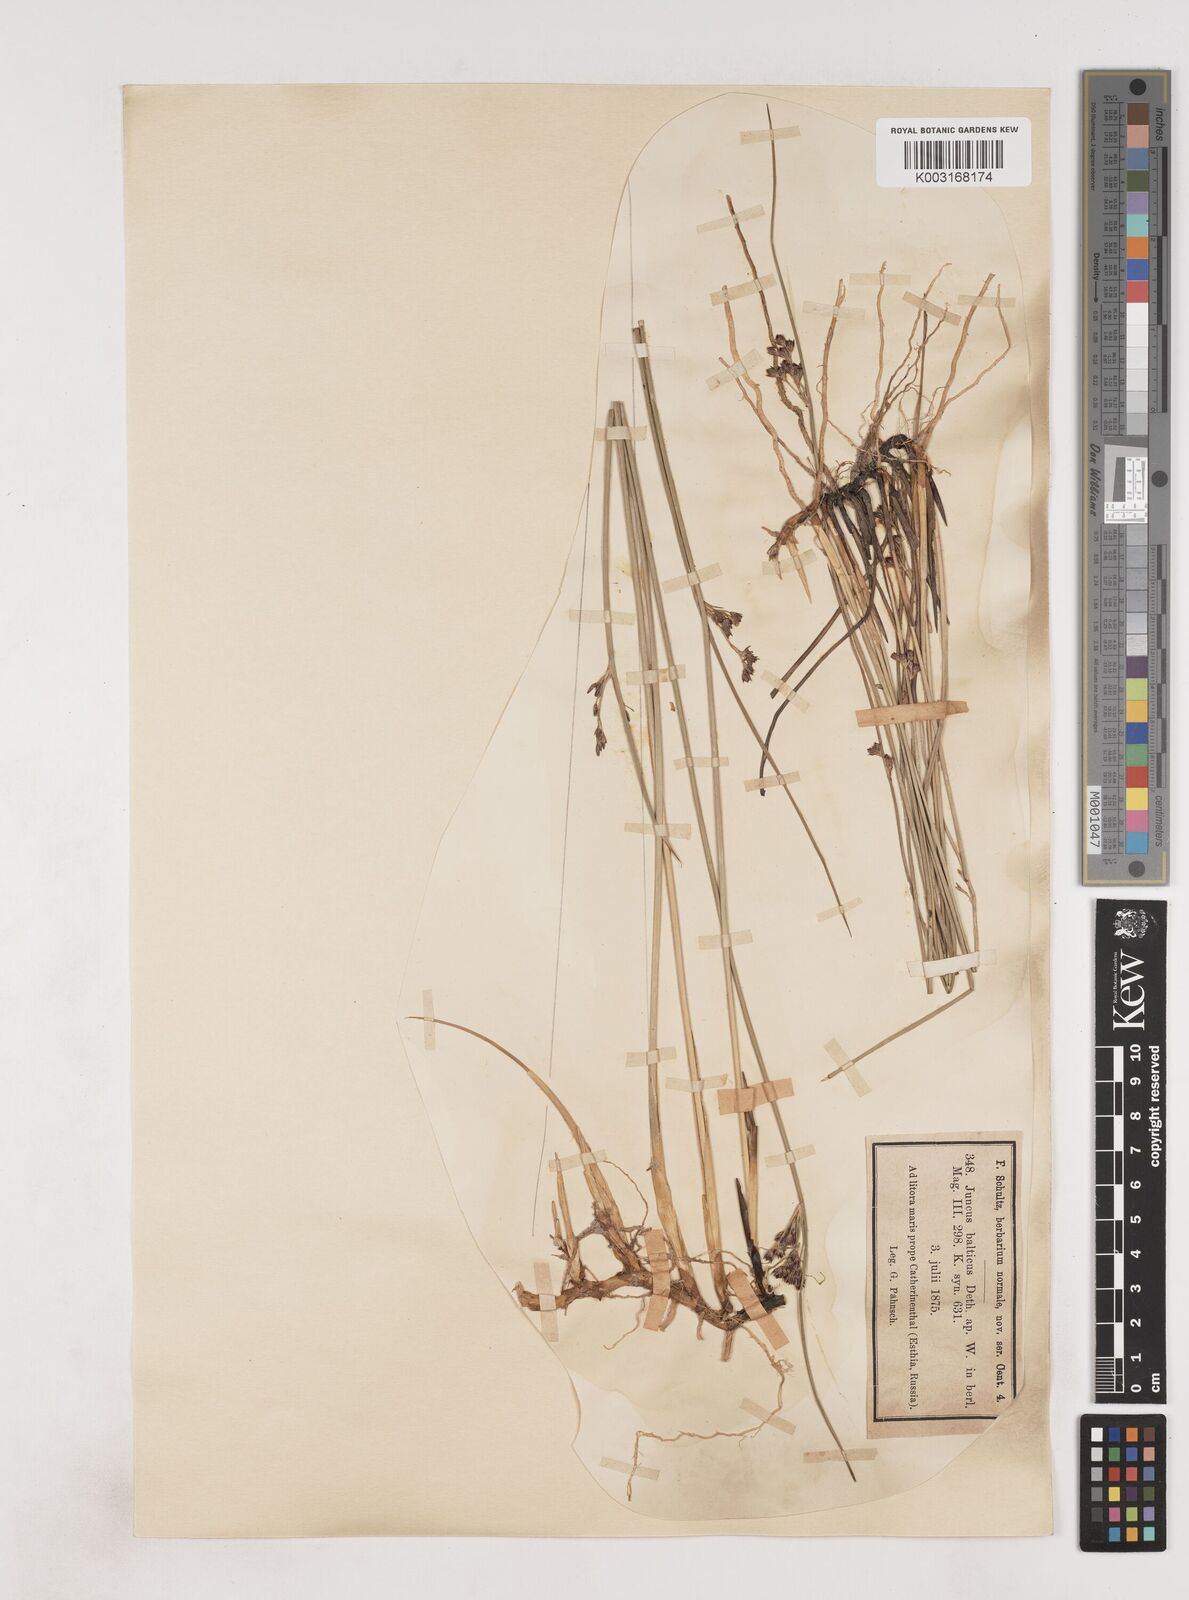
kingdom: Plantae
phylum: Tracheophyta
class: Liliopsida
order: Poales
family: Juncaceae
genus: Juncus
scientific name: Juncus balticus
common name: Baltic rush
